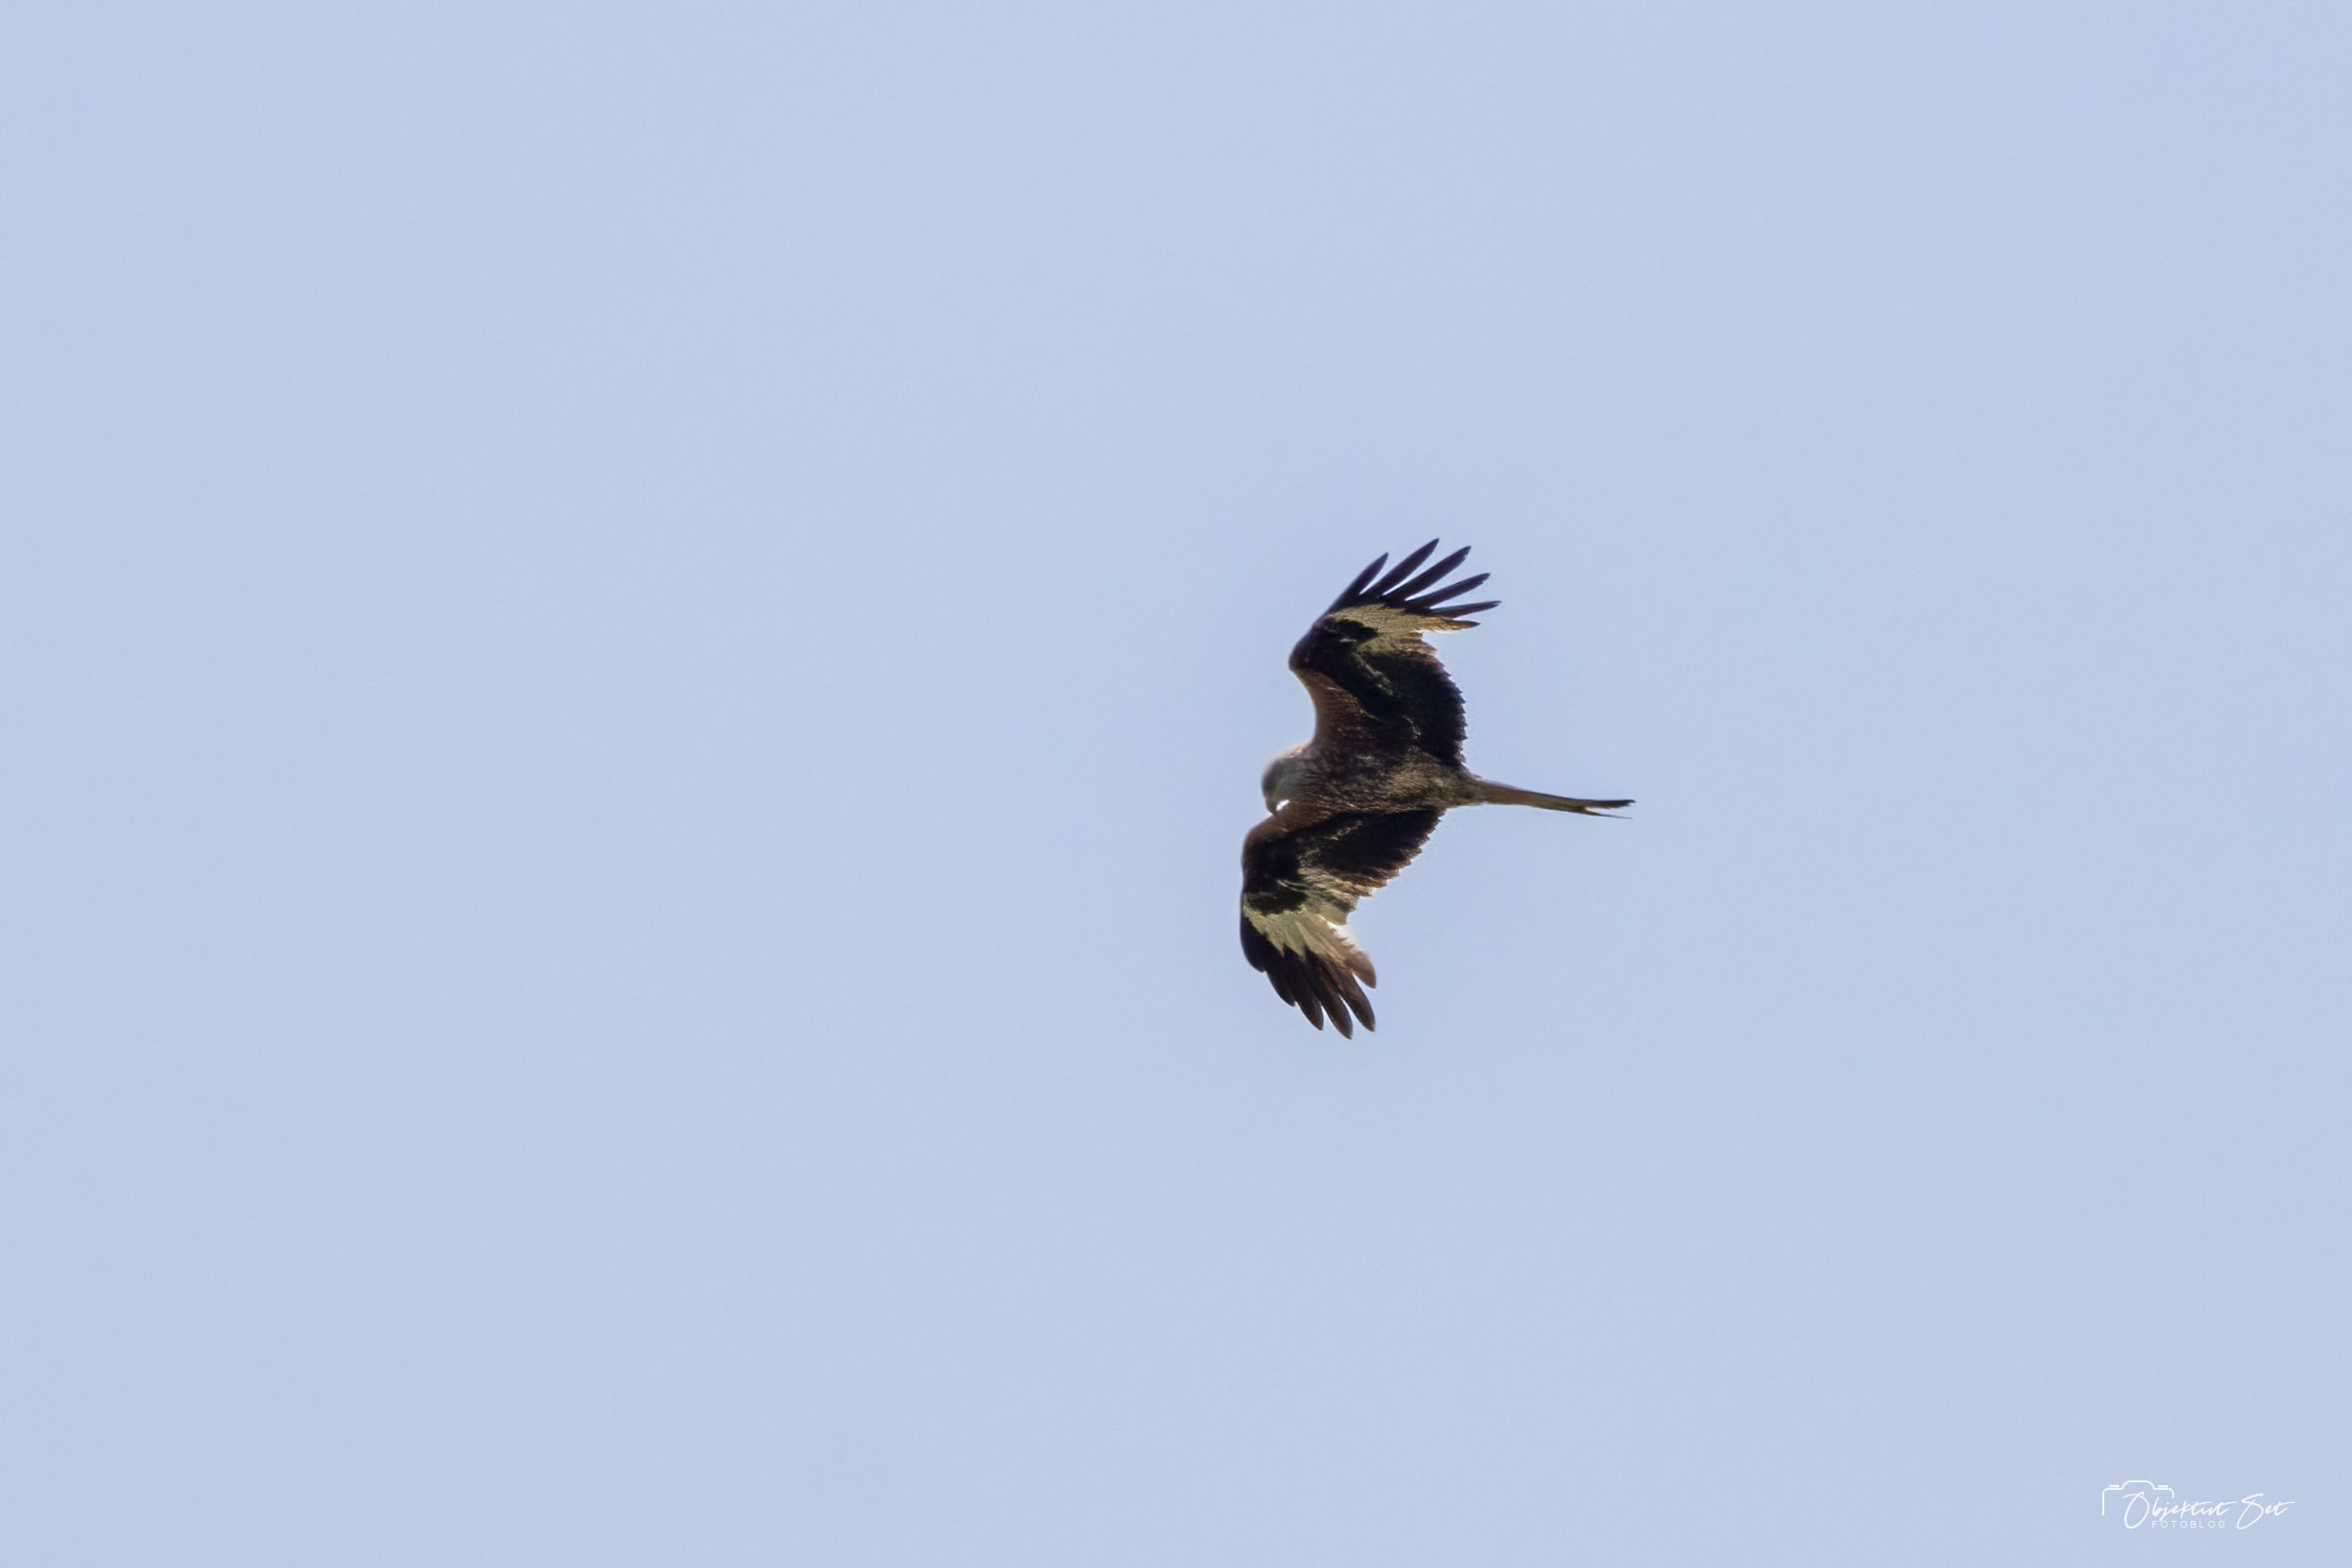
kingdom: Animalia
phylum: Chordata
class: Aves
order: Accipitriformes
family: Accipitridae
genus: Milvus
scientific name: Milvus milvus
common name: Rød glente
